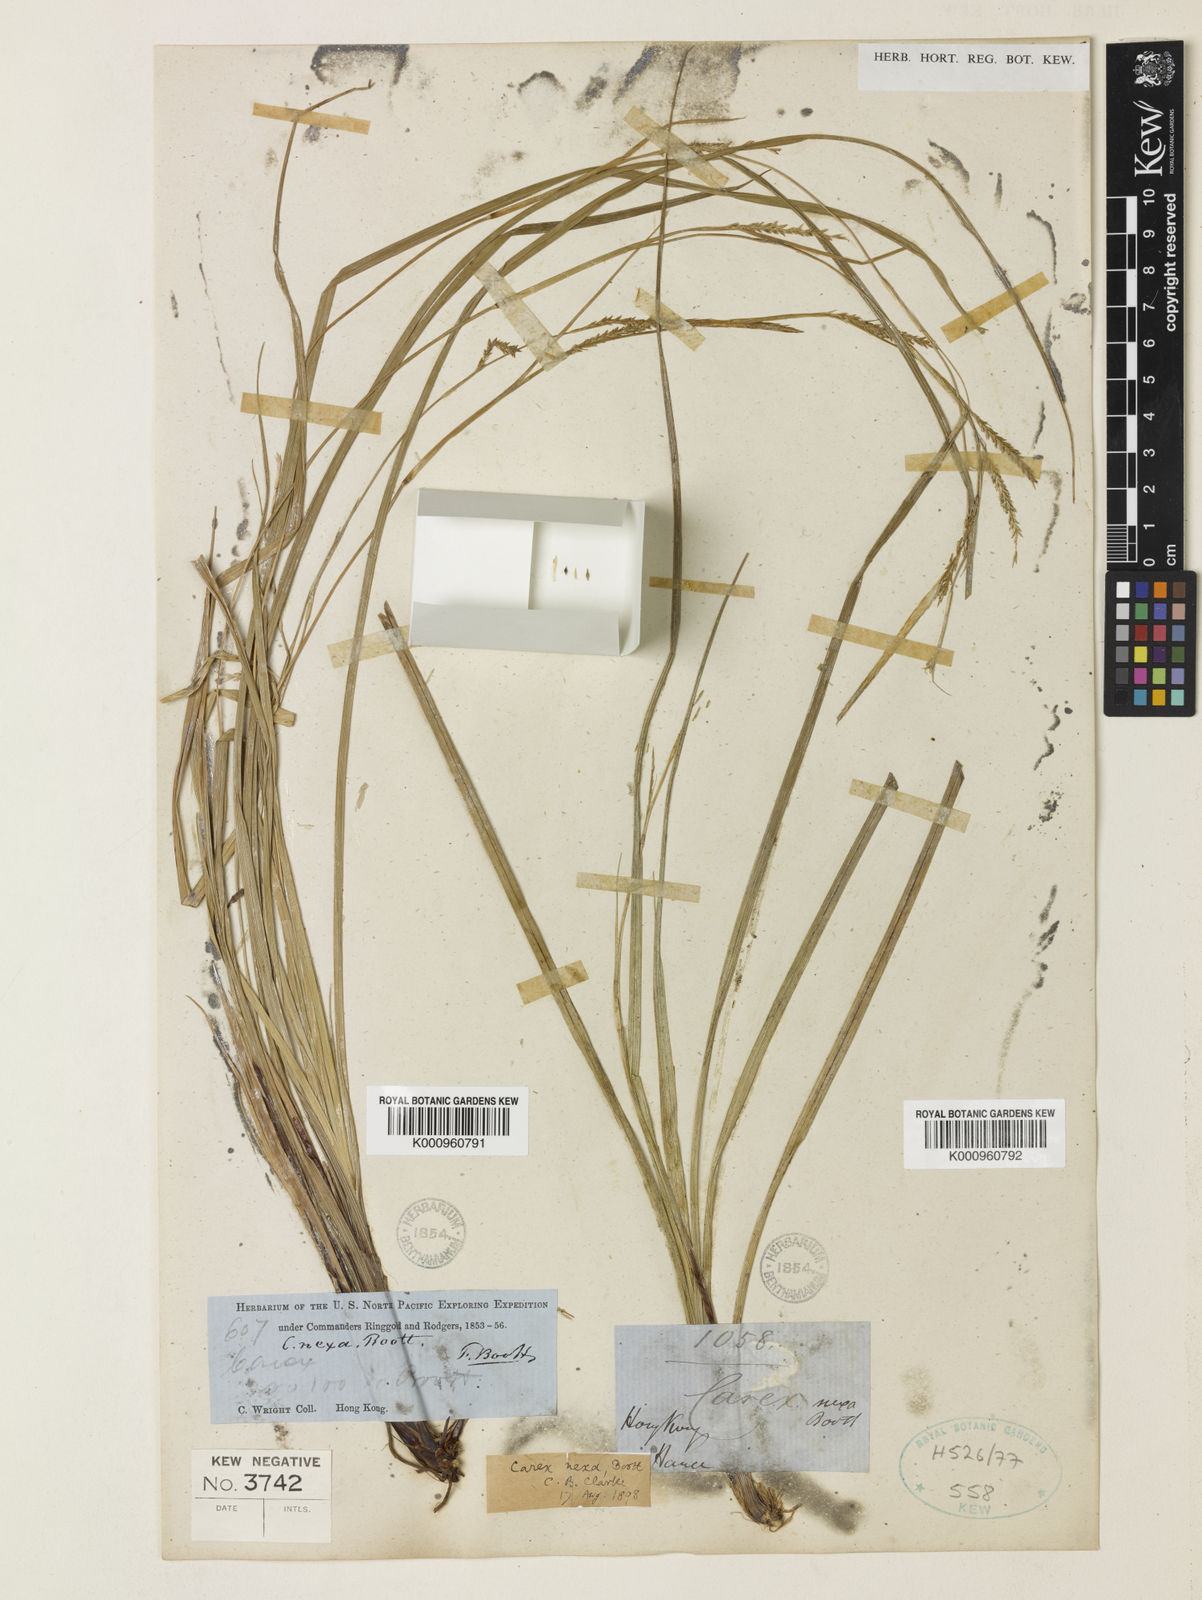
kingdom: Plantae
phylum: Tracheophyta
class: Liliopsida
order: Poales
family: Cyperaceae
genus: Carex
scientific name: Carex
